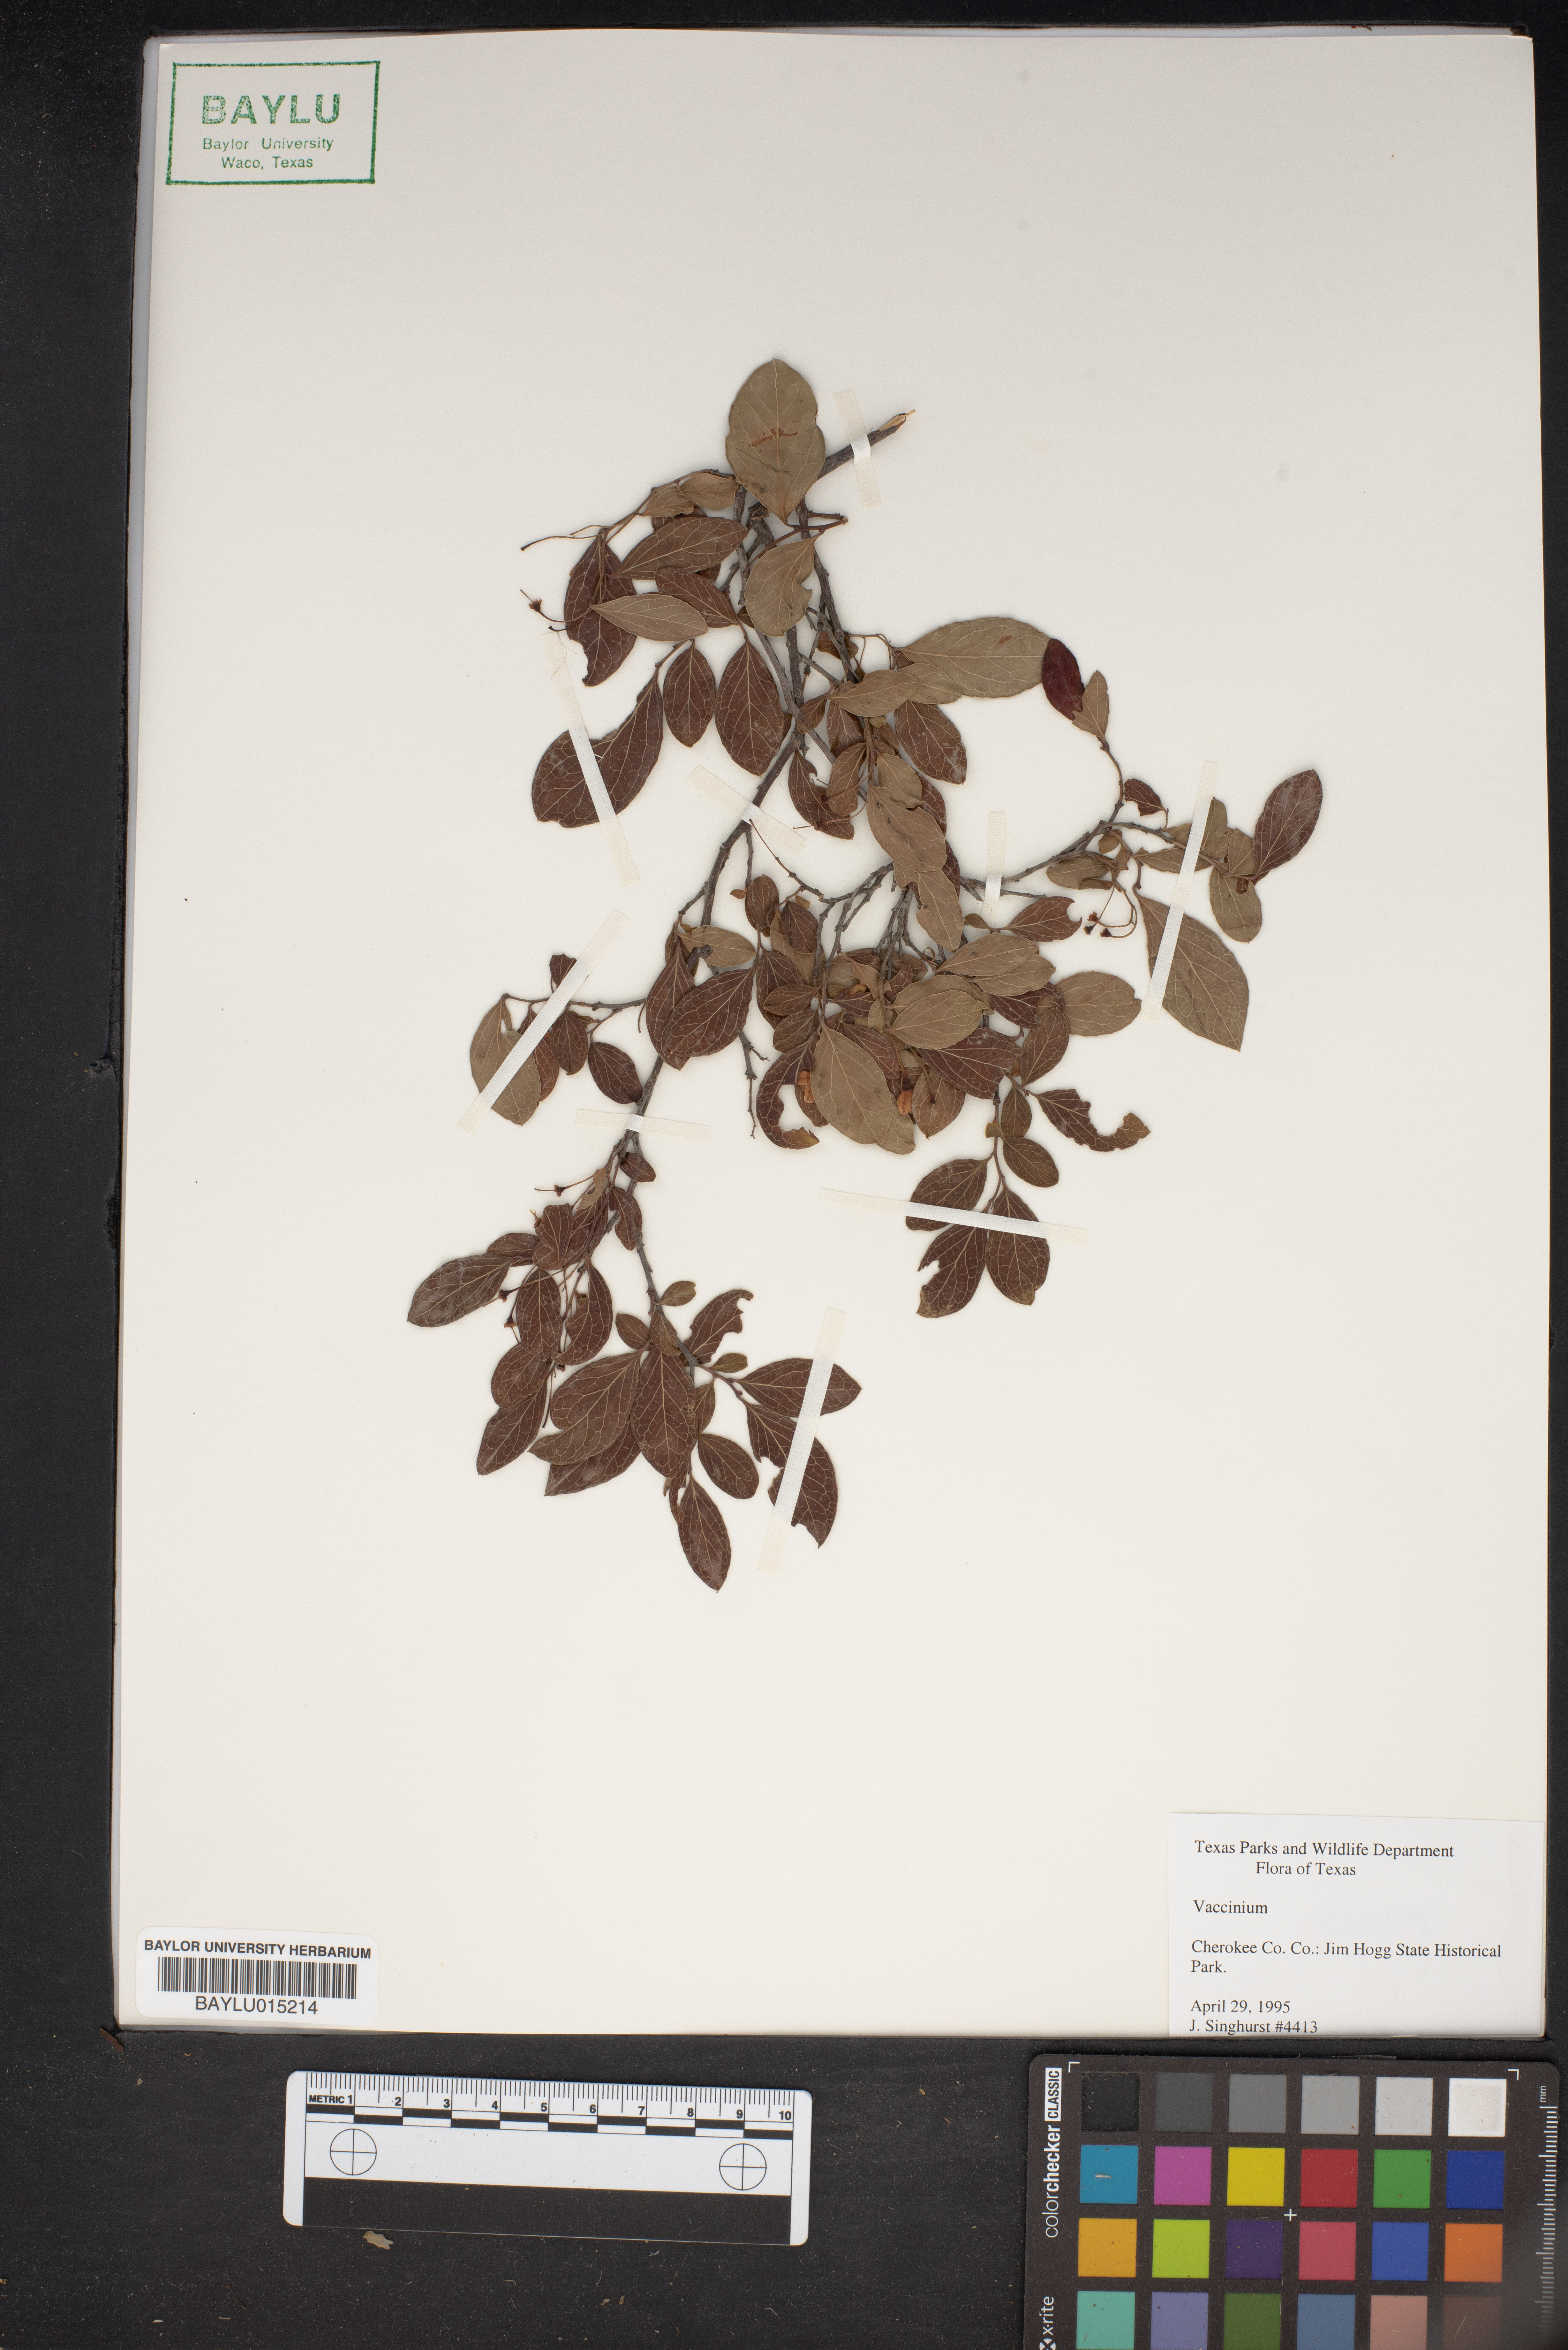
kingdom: Plantae
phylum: Tracheophyta
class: Magnoliopsida
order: Ericales
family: Ericaceae
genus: Vaccinium
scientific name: Vaccinium
